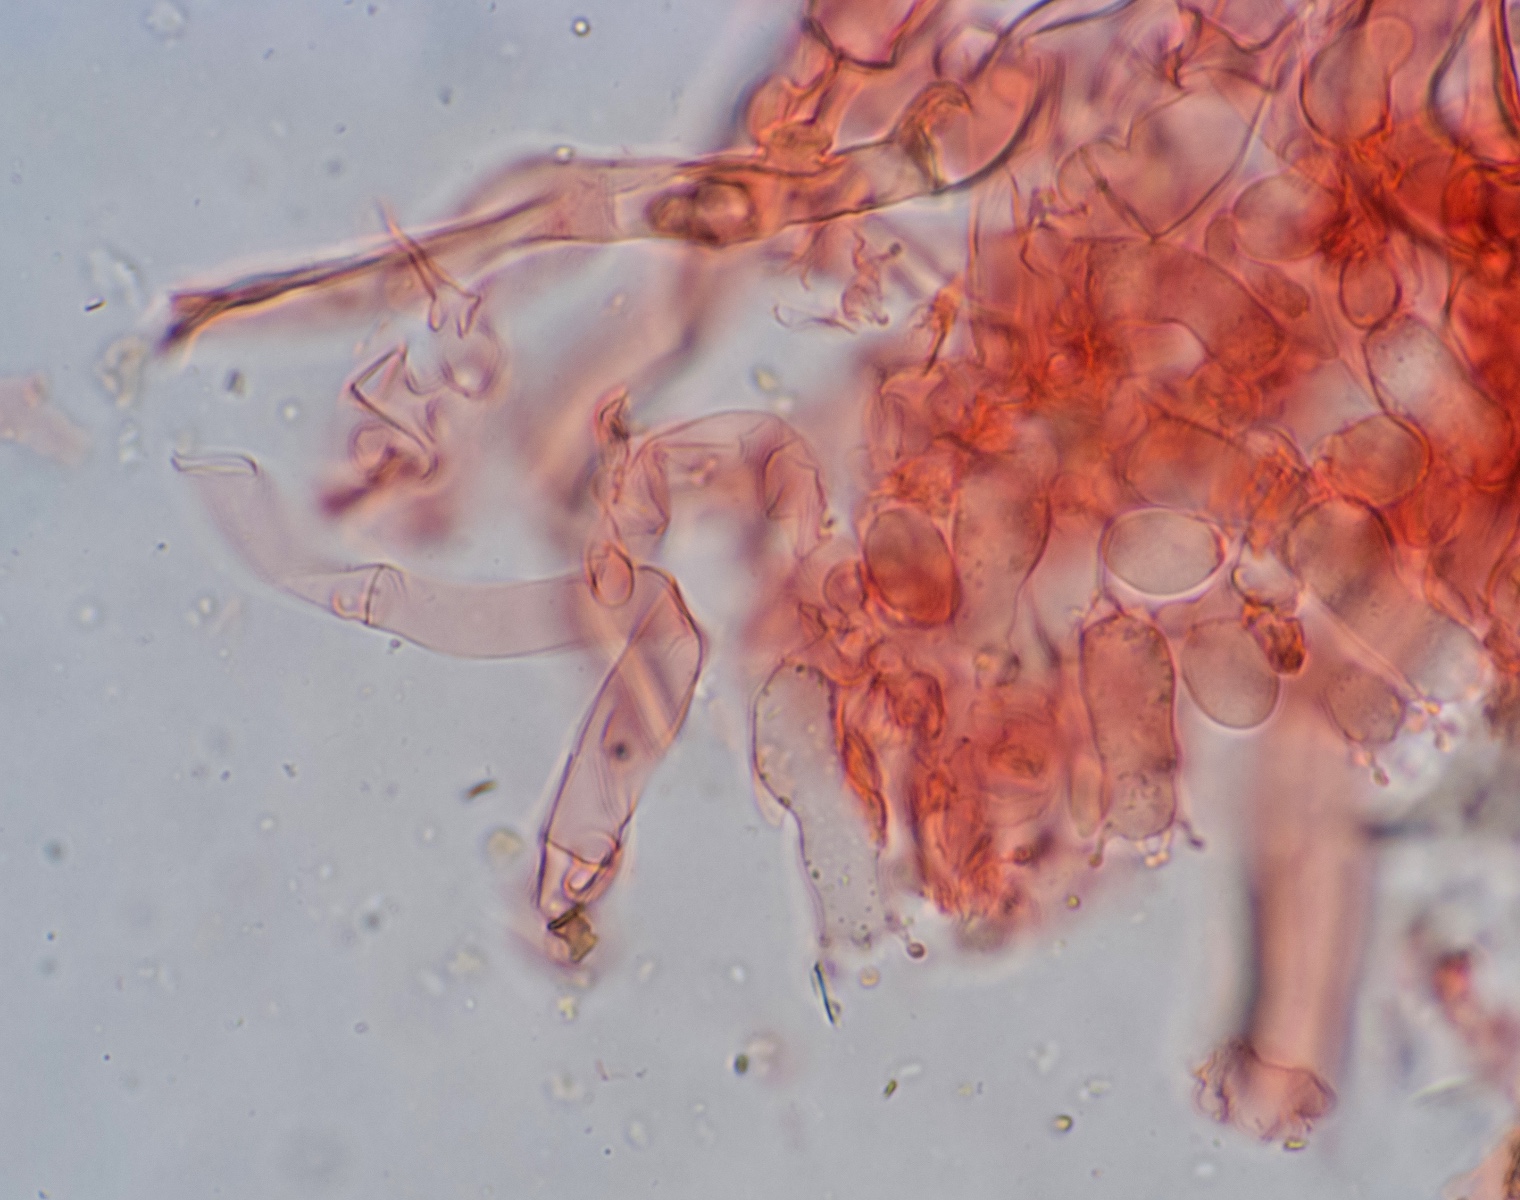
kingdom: Fungi
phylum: Basidiomycota
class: Agaricomycetes
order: Cantharellales
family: Botryobasidiaceae
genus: Botryobasidium
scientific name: Botryobasidium subcoronatum
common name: almindelig spindhinde
